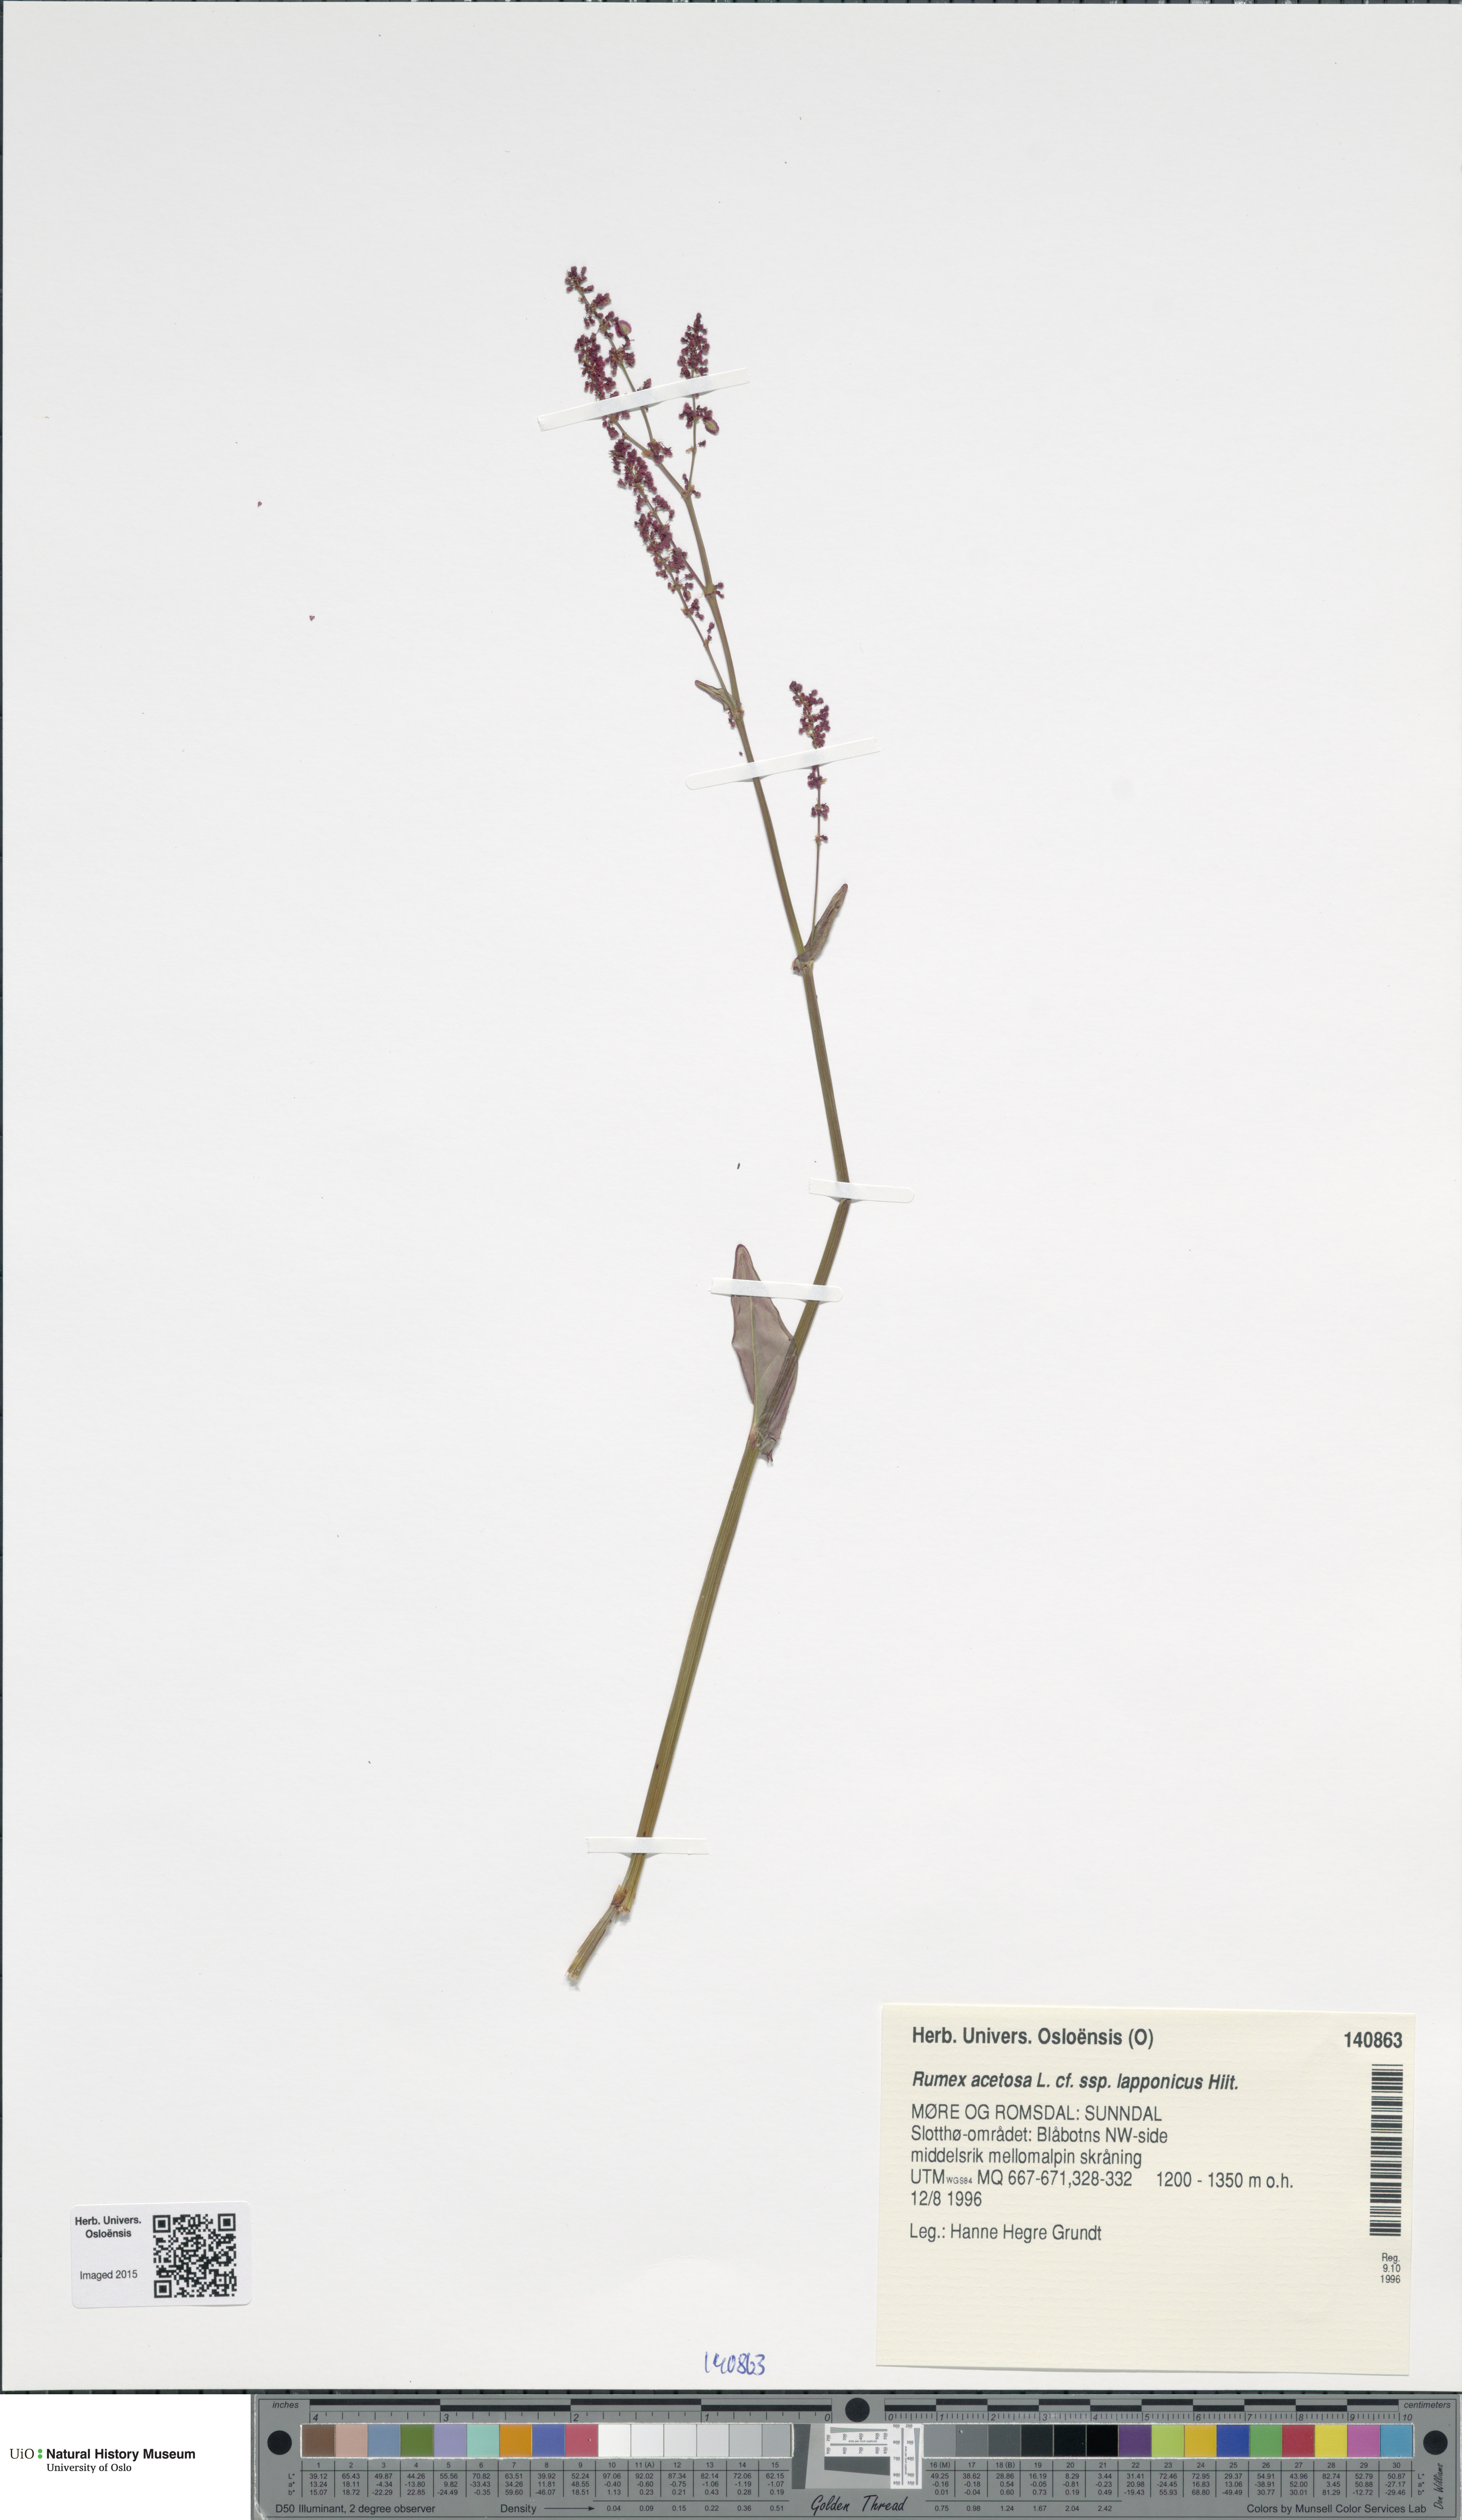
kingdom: Plantae
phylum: Tracheophyta
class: Magnoliopsida
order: Caryophyllales
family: Polygonaceae
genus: Rumex
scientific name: Rumex lapponicus
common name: Lapland mountain sorrel
